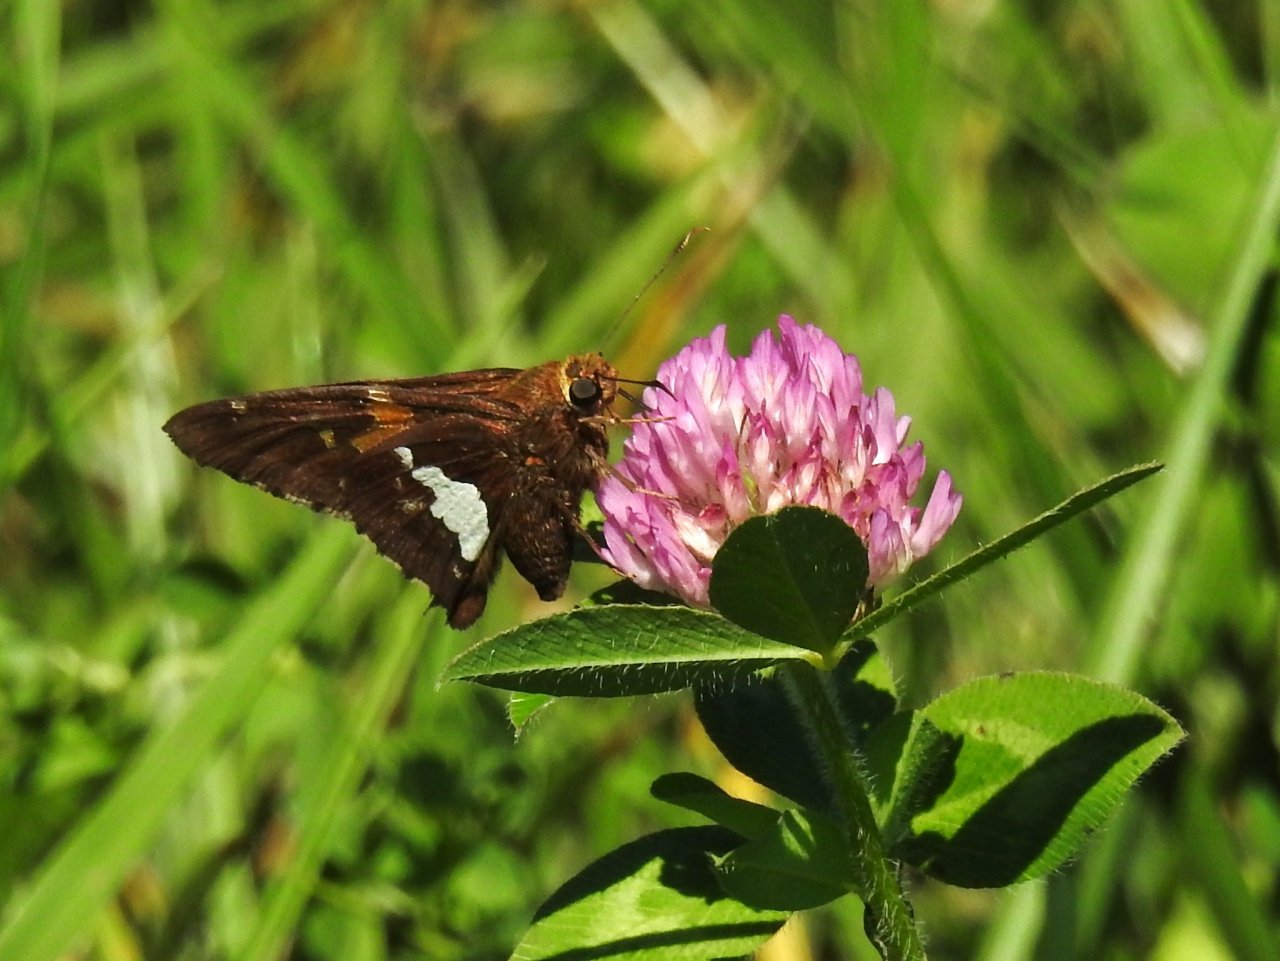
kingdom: Animalia
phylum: Arthropoda
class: Insecta
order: Lepidoptera
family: Hesperiidae
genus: Epargyreus
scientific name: Epargyreus clarus
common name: Silver-spotted Skipper
